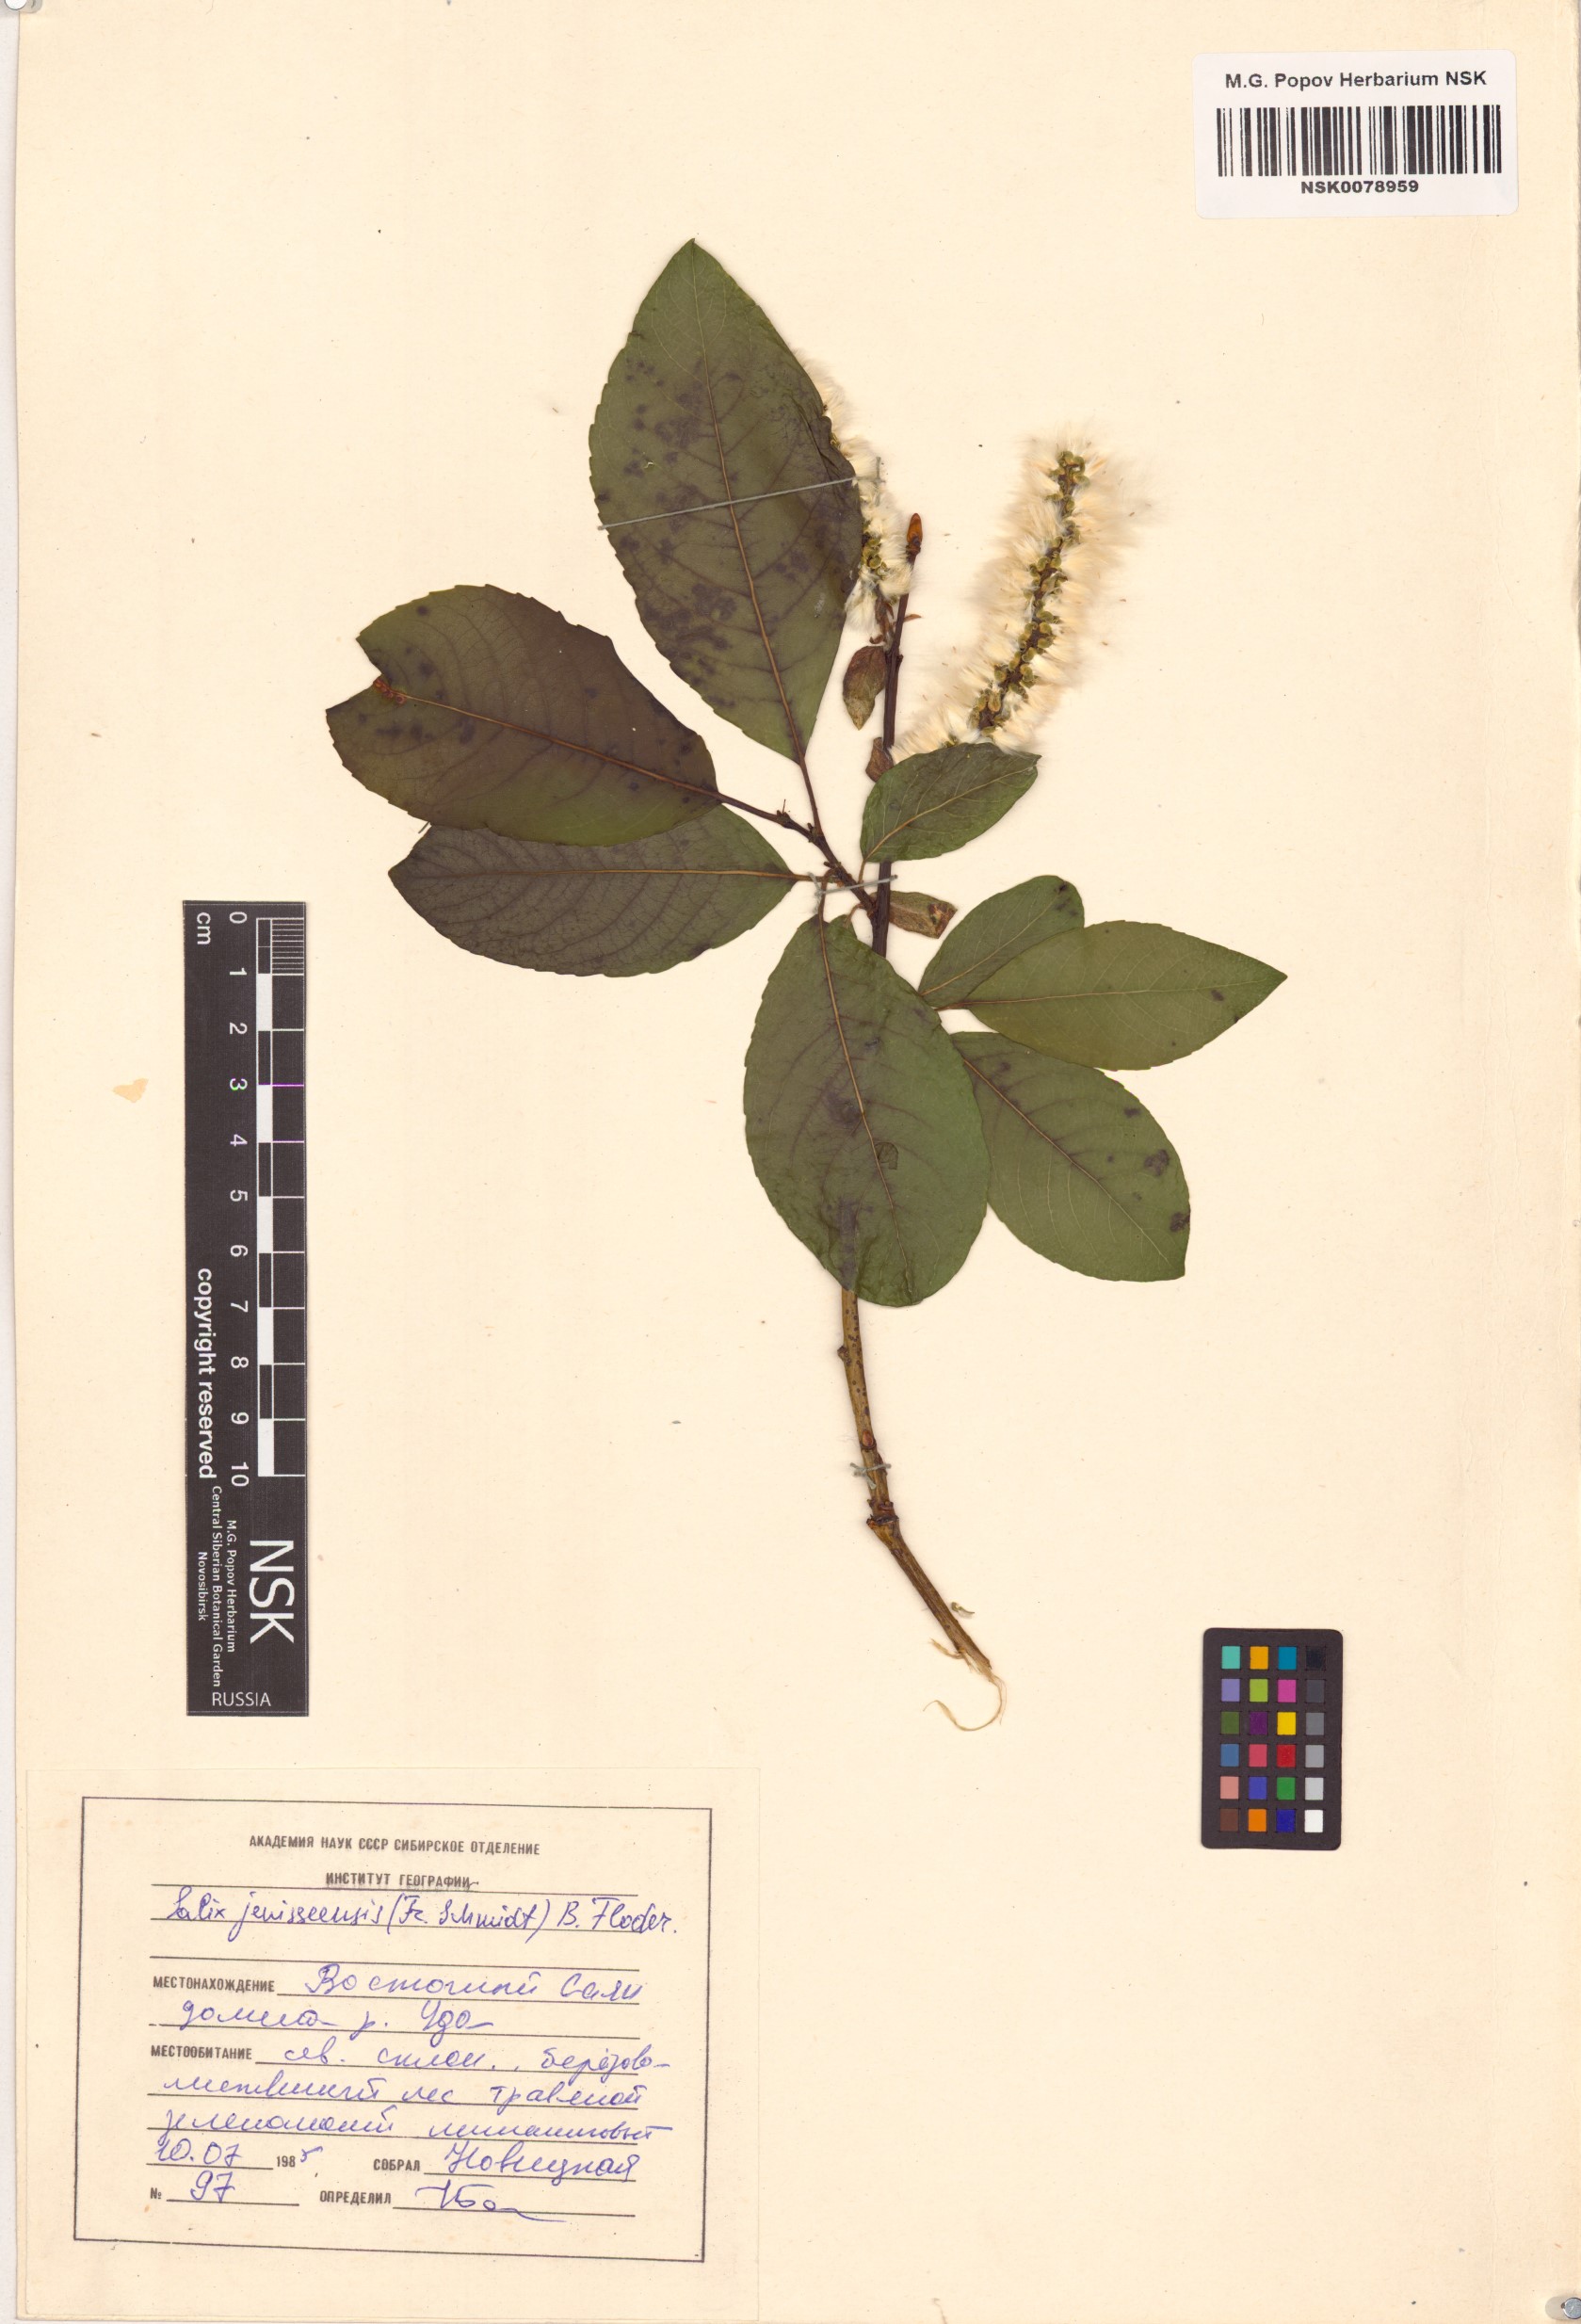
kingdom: Plantae
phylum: Tracheophyta
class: Magnoliopsida
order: Malpighiales
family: Salicaceae
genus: Salix
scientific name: Salix jenisseensis
